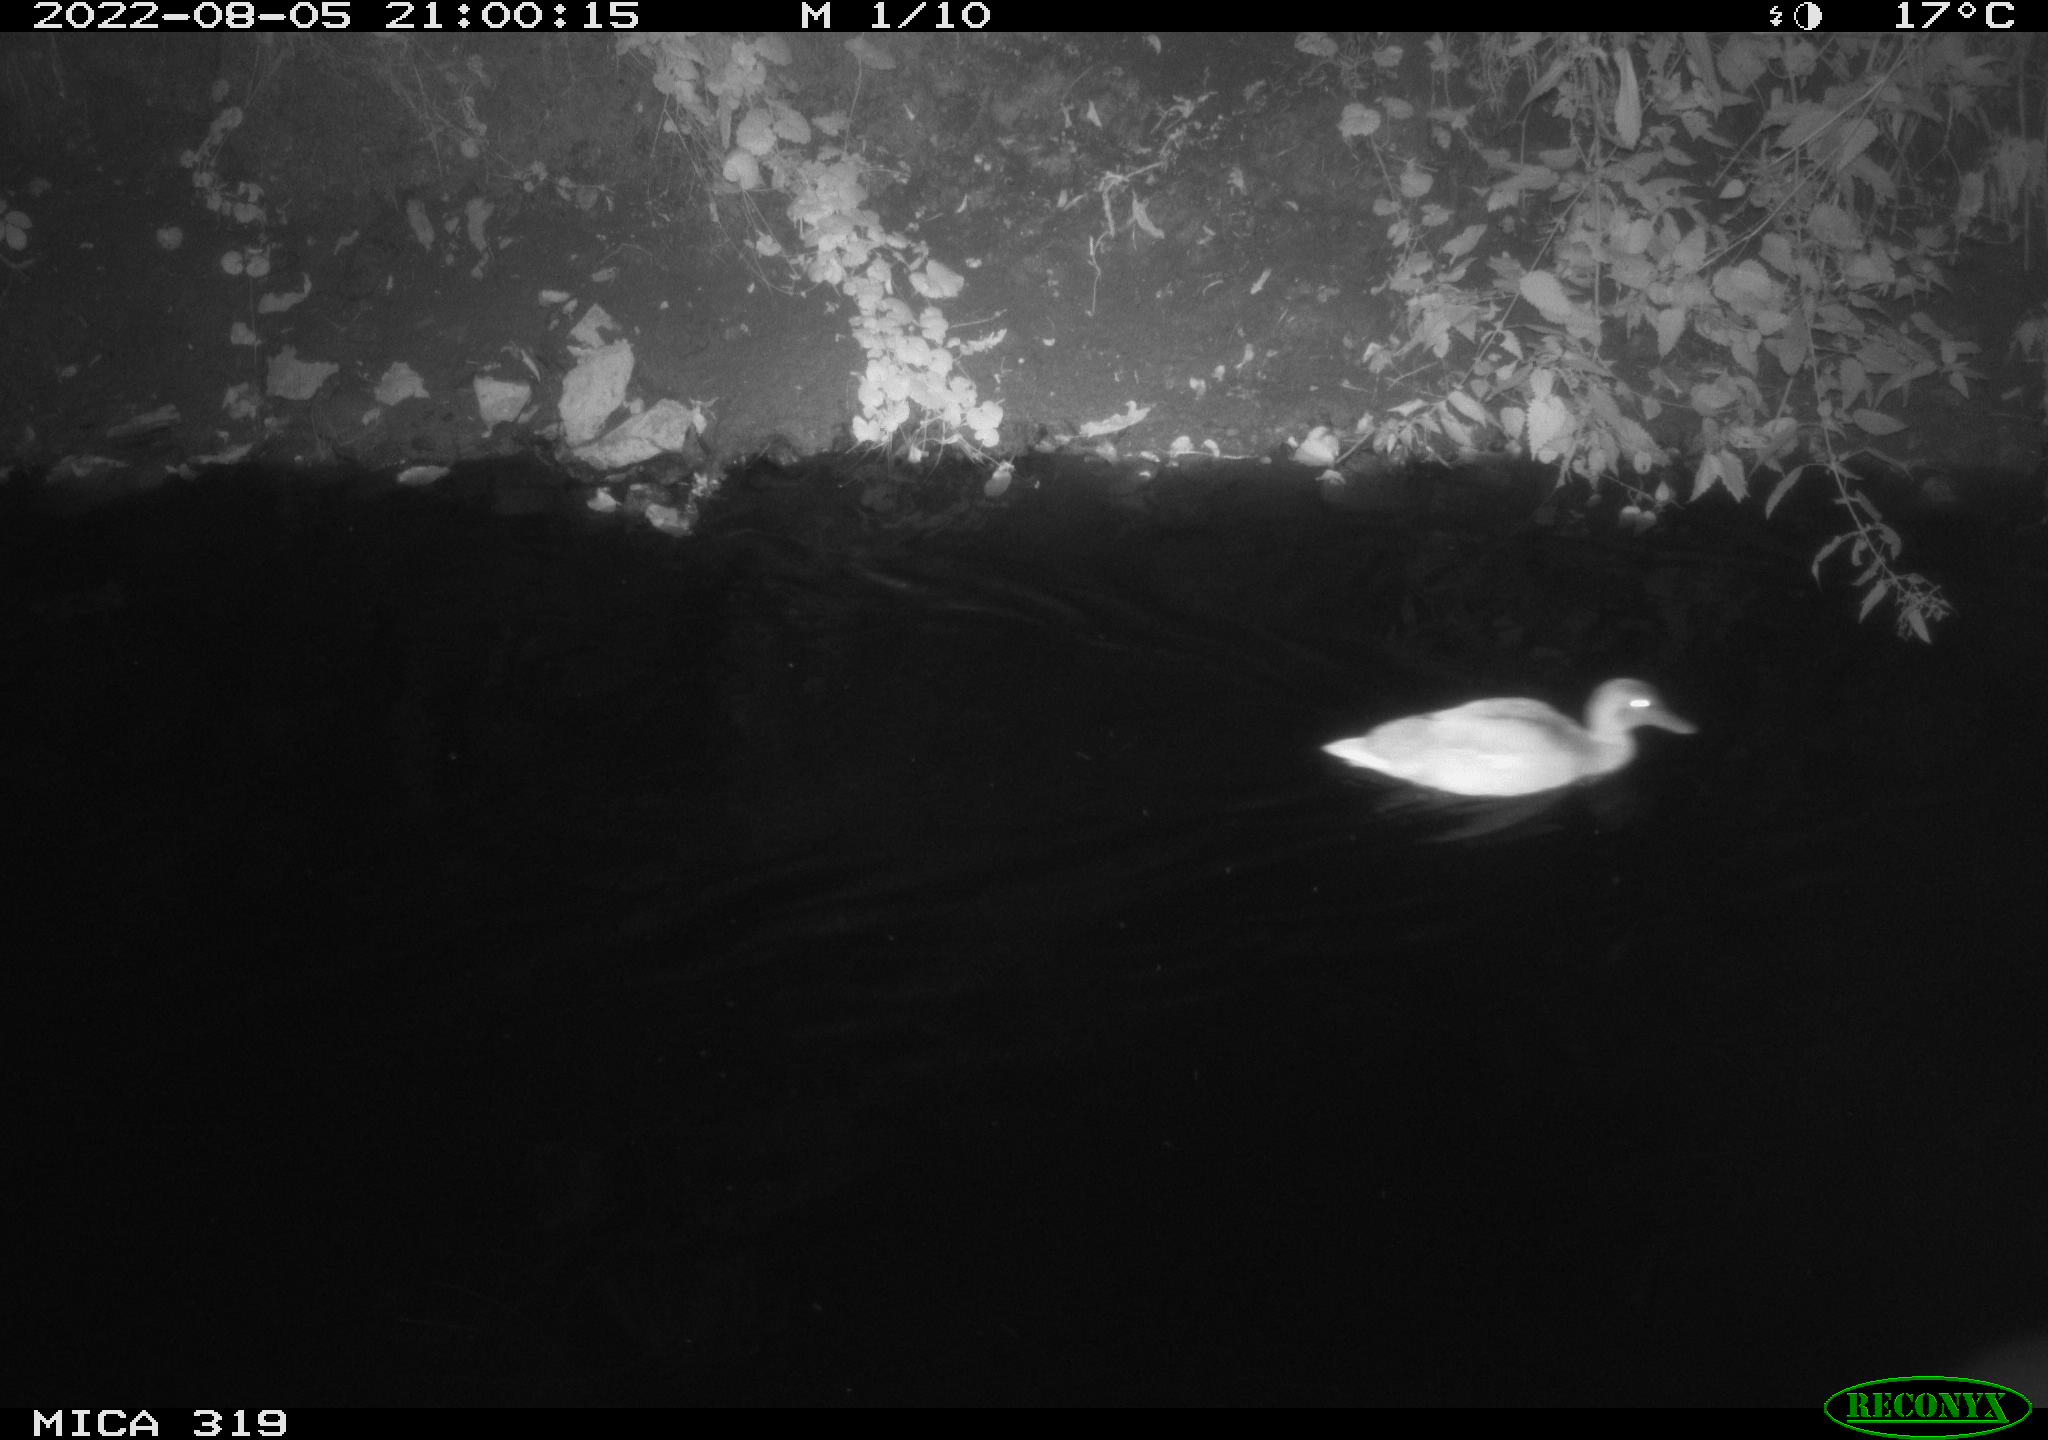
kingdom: Animalia
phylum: Chordata
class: Aves
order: Anseriformes
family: Anatidae
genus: Anas
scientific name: Anas
